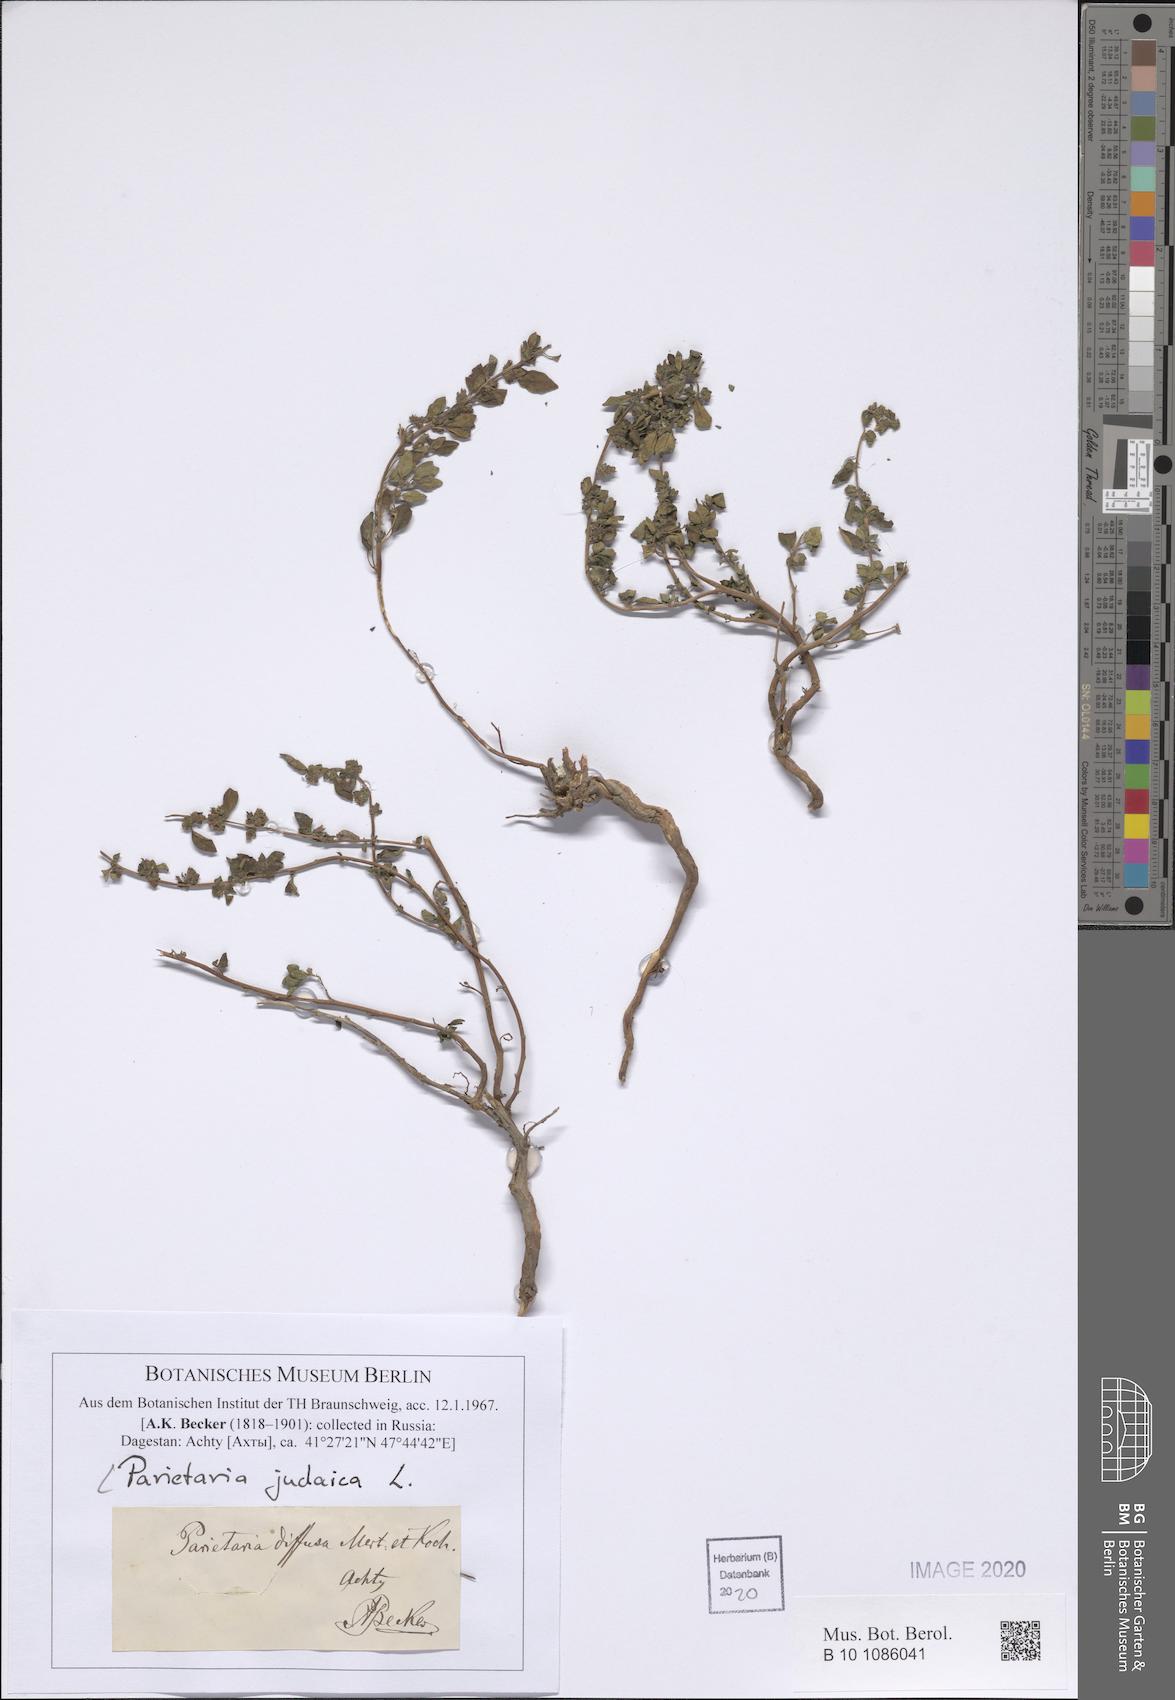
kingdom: Plantae
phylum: Tracheophyta
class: Magnoliopsida
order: Rosales
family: Urticaceae
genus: Parietaria
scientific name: Parietaria judaica
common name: Pellitory-of-the-wall
